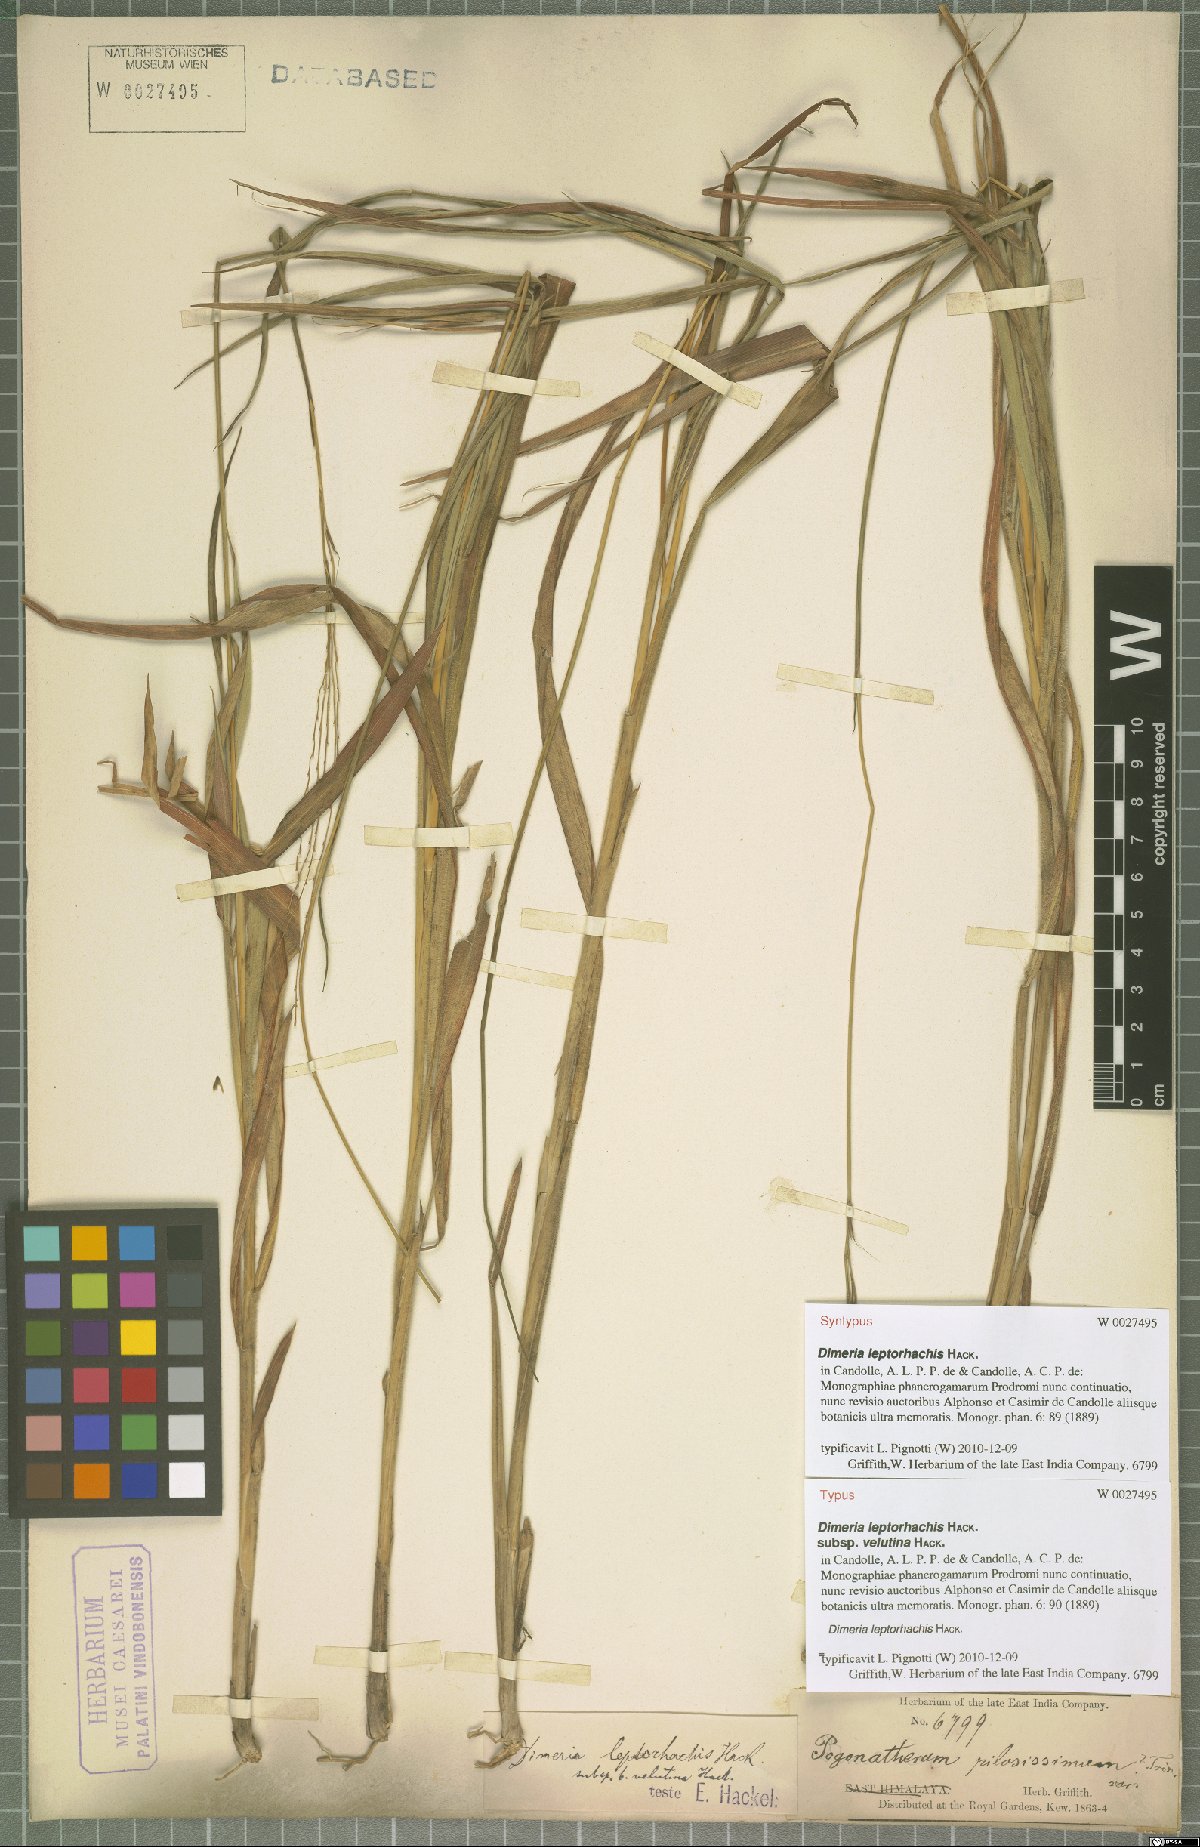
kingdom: Plantae
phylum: Tracheophyta
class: Liliopsida
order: Poales
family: Poaceae
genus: Dimeria
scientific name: Dimeria gracilis
